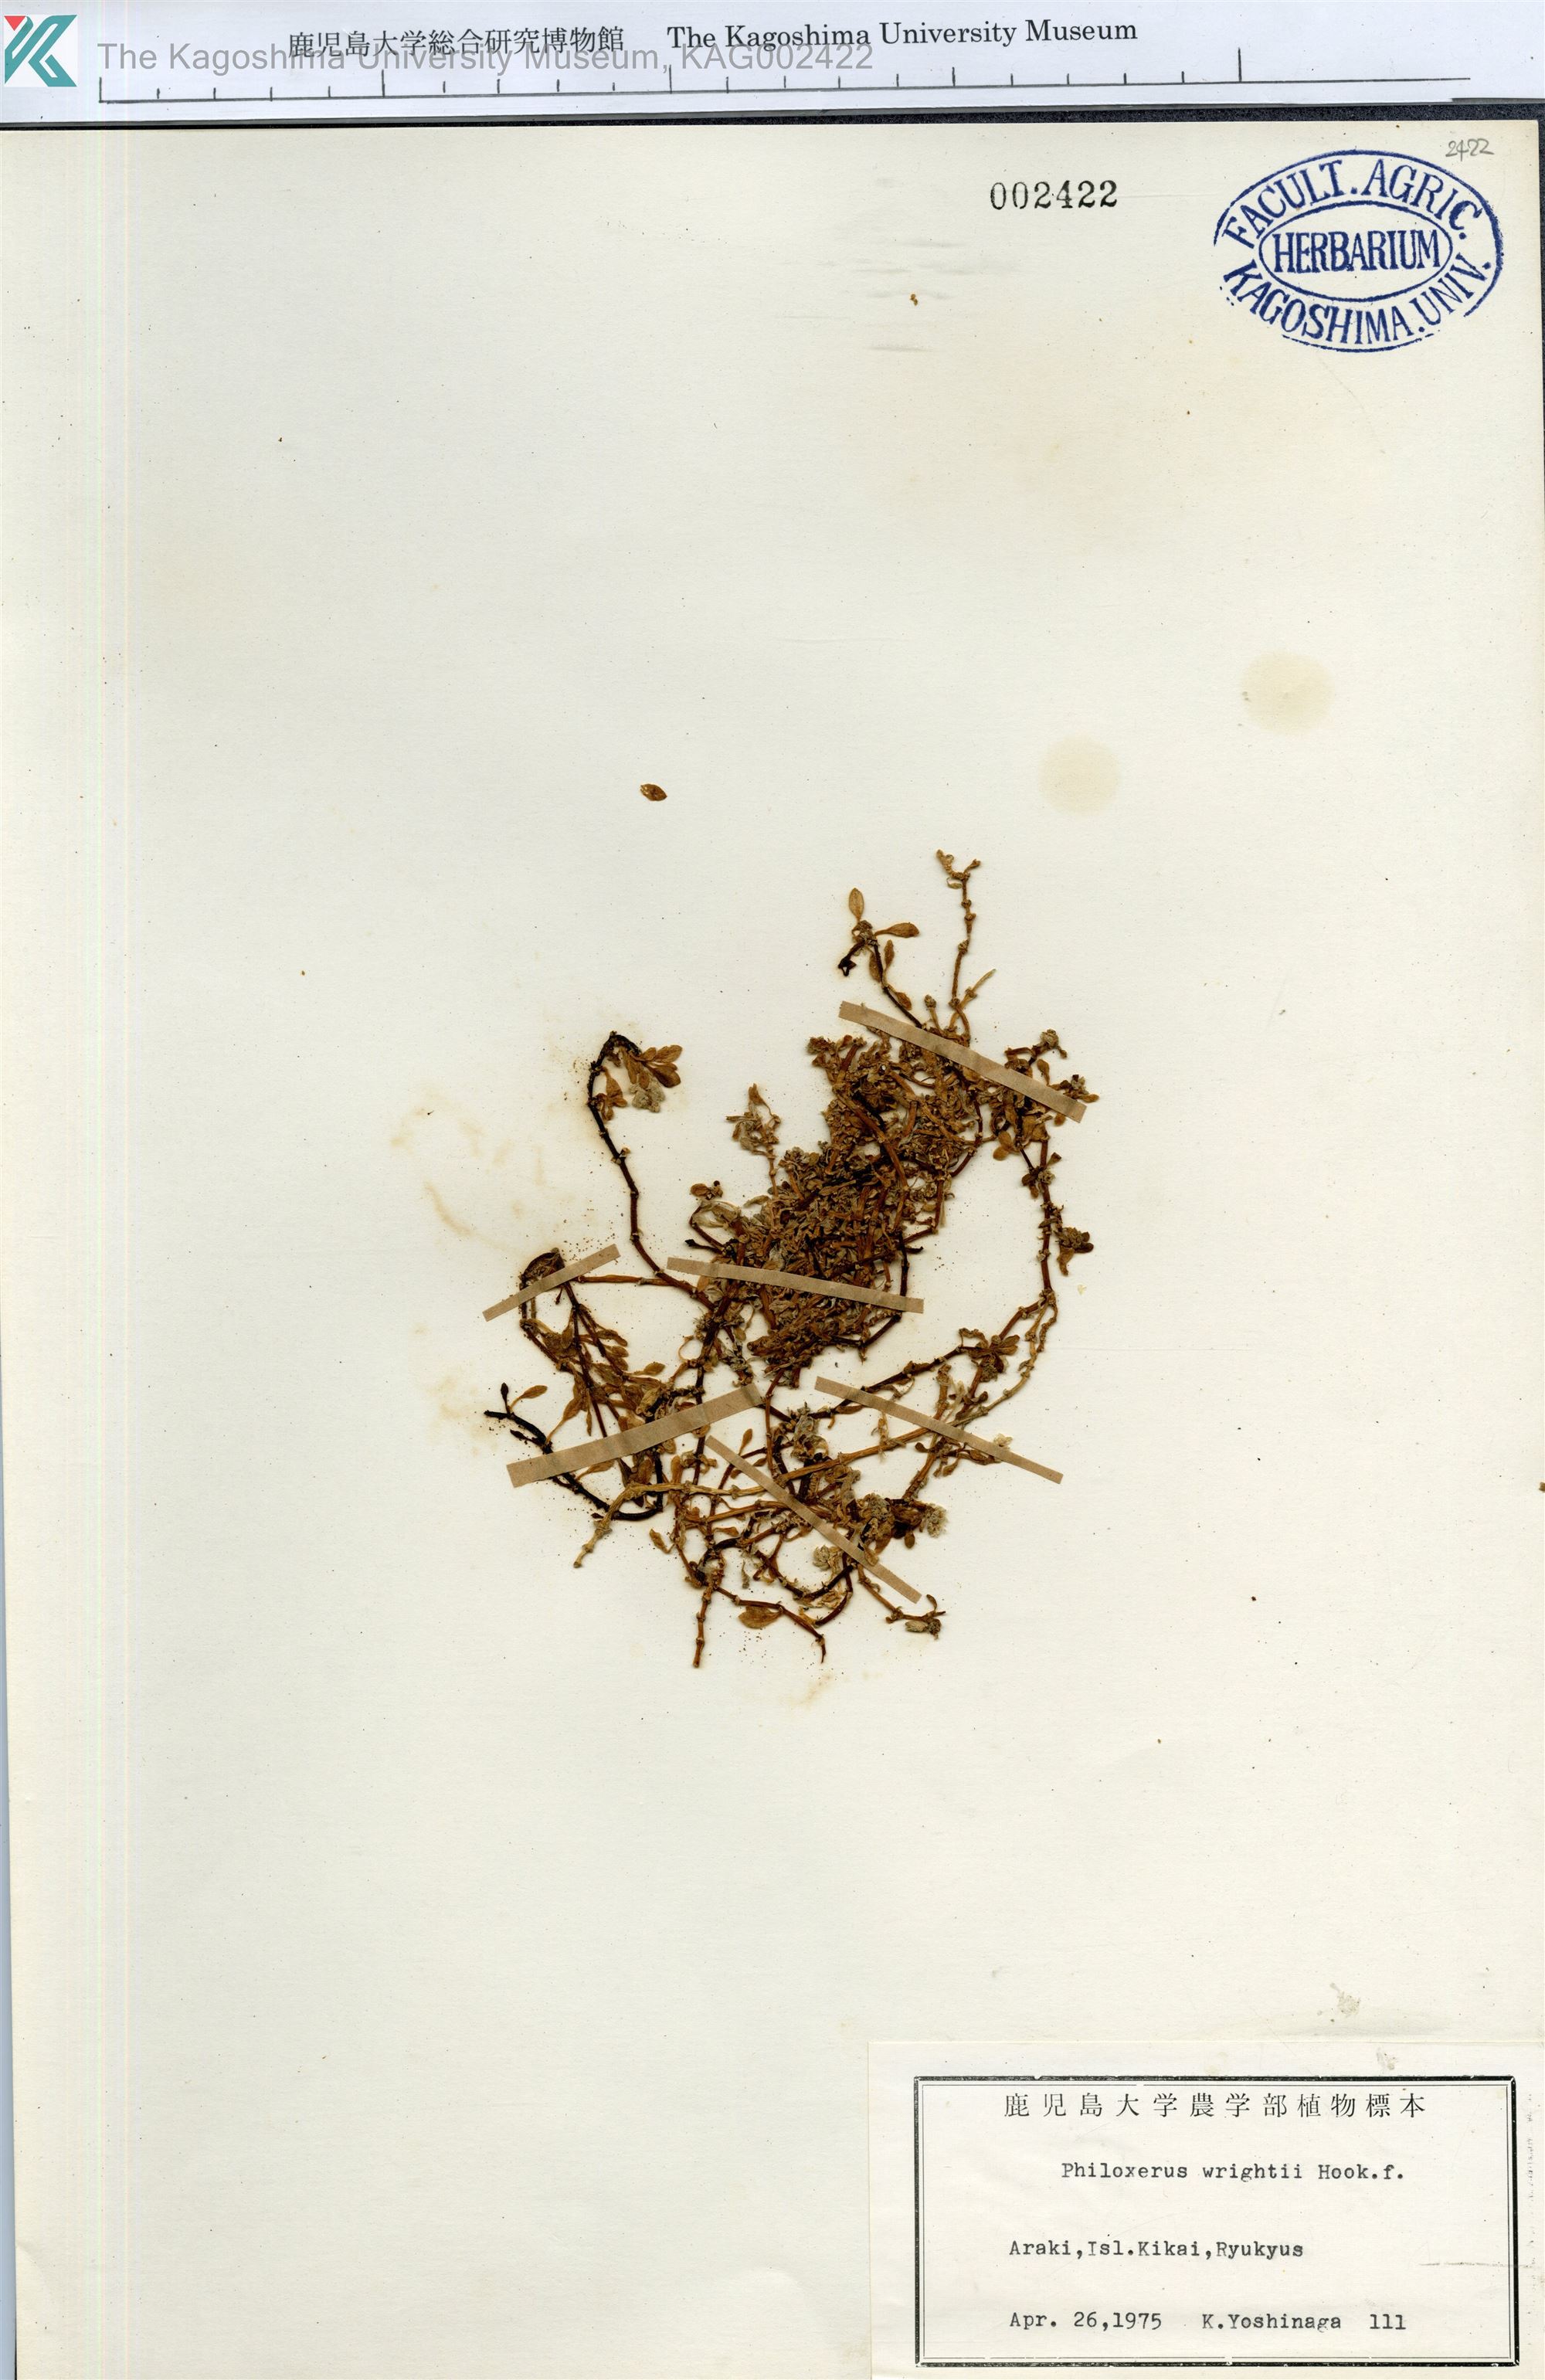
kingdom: Plantae
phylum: Tracheophyta
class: Magnoliopsida
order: Caryophyllales
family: Amaranthaceae
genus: Gomphrena
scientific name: Gomphrena wrightii
